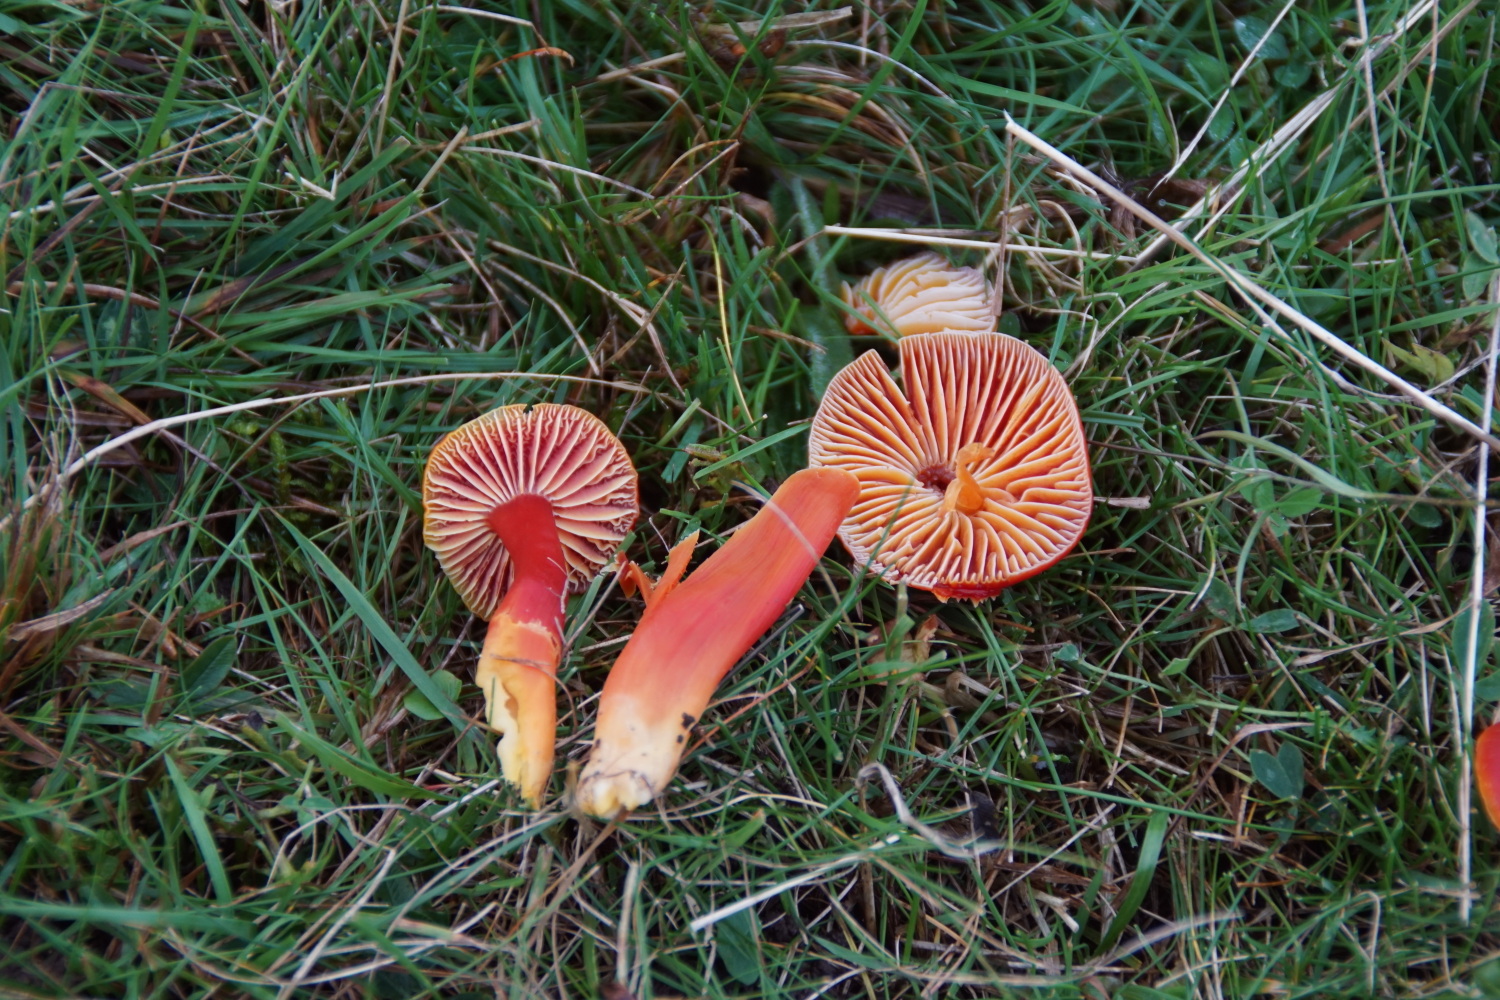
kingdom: Fungi
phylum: Basidiomycota
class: Agaricomycetes
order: Agaricales
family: Hygrophoraceae
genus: Hygrocybe
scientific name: Hygrocybe coccinea
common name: cinnober-vokshat
